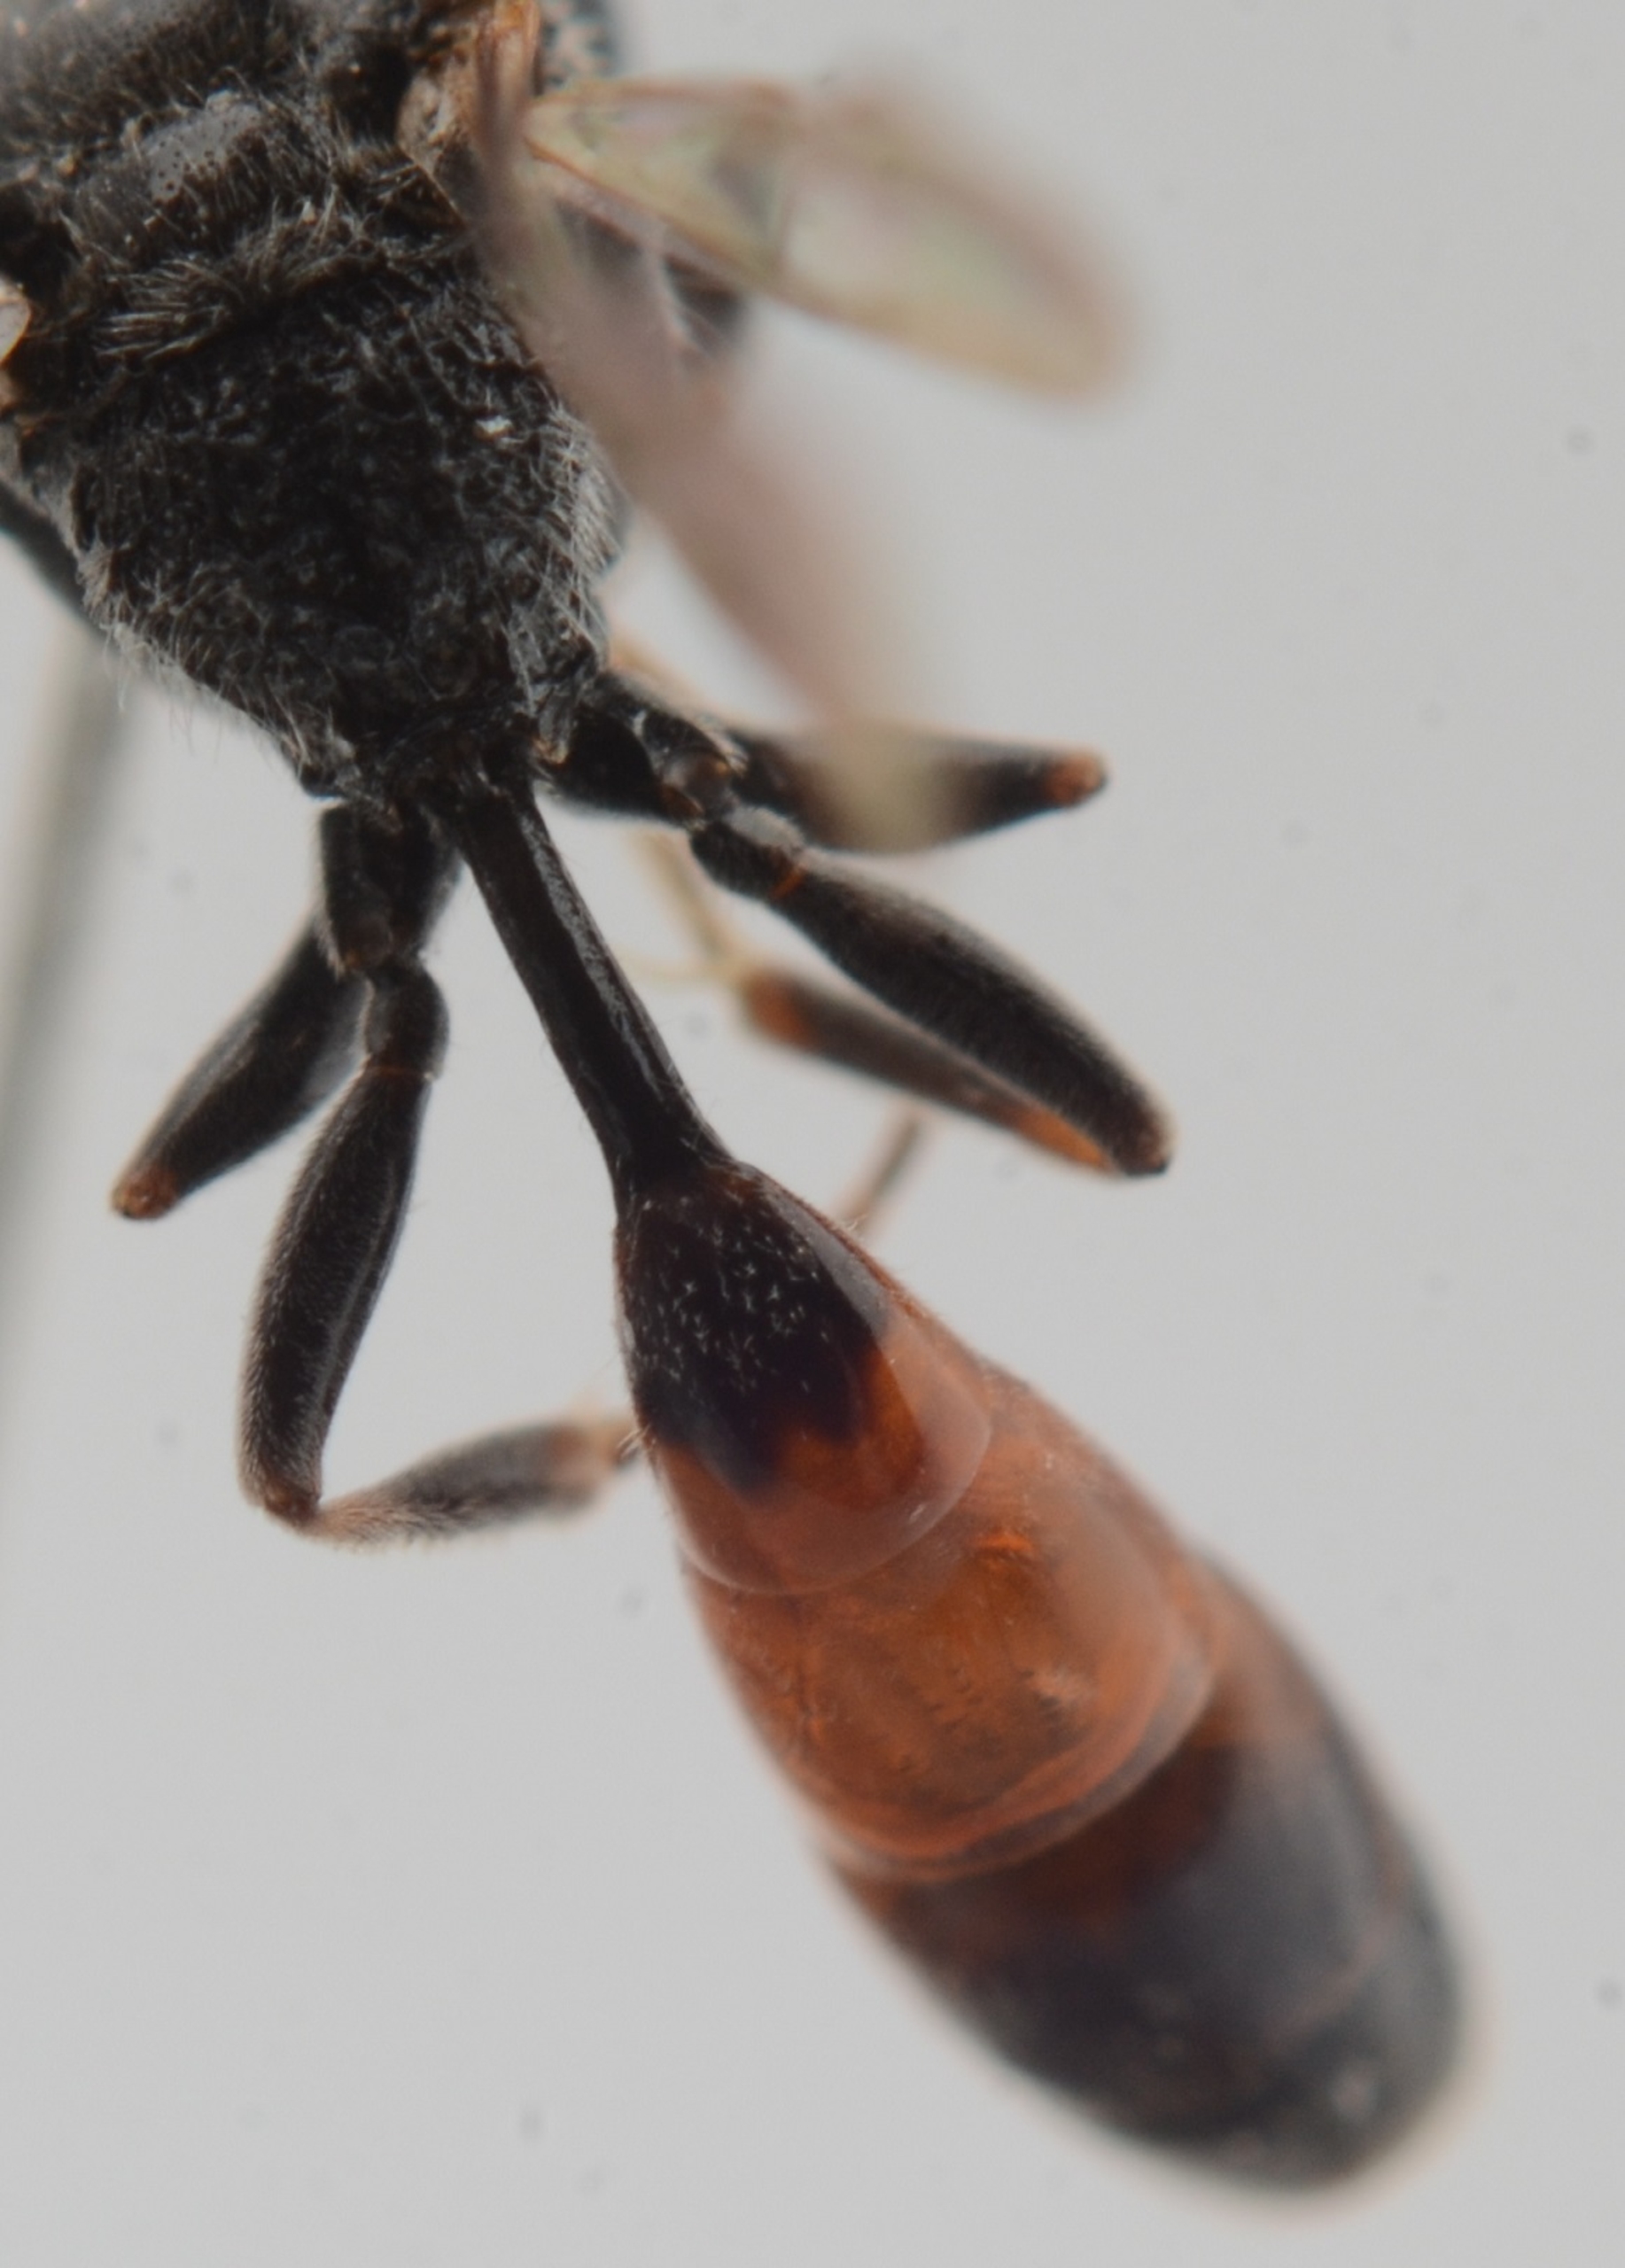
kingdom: Animalia
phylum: Arthropoda
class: Insecta
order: Hymenoptera
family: Crabronidae
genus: Mimesa
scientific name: Mimesa equestris
